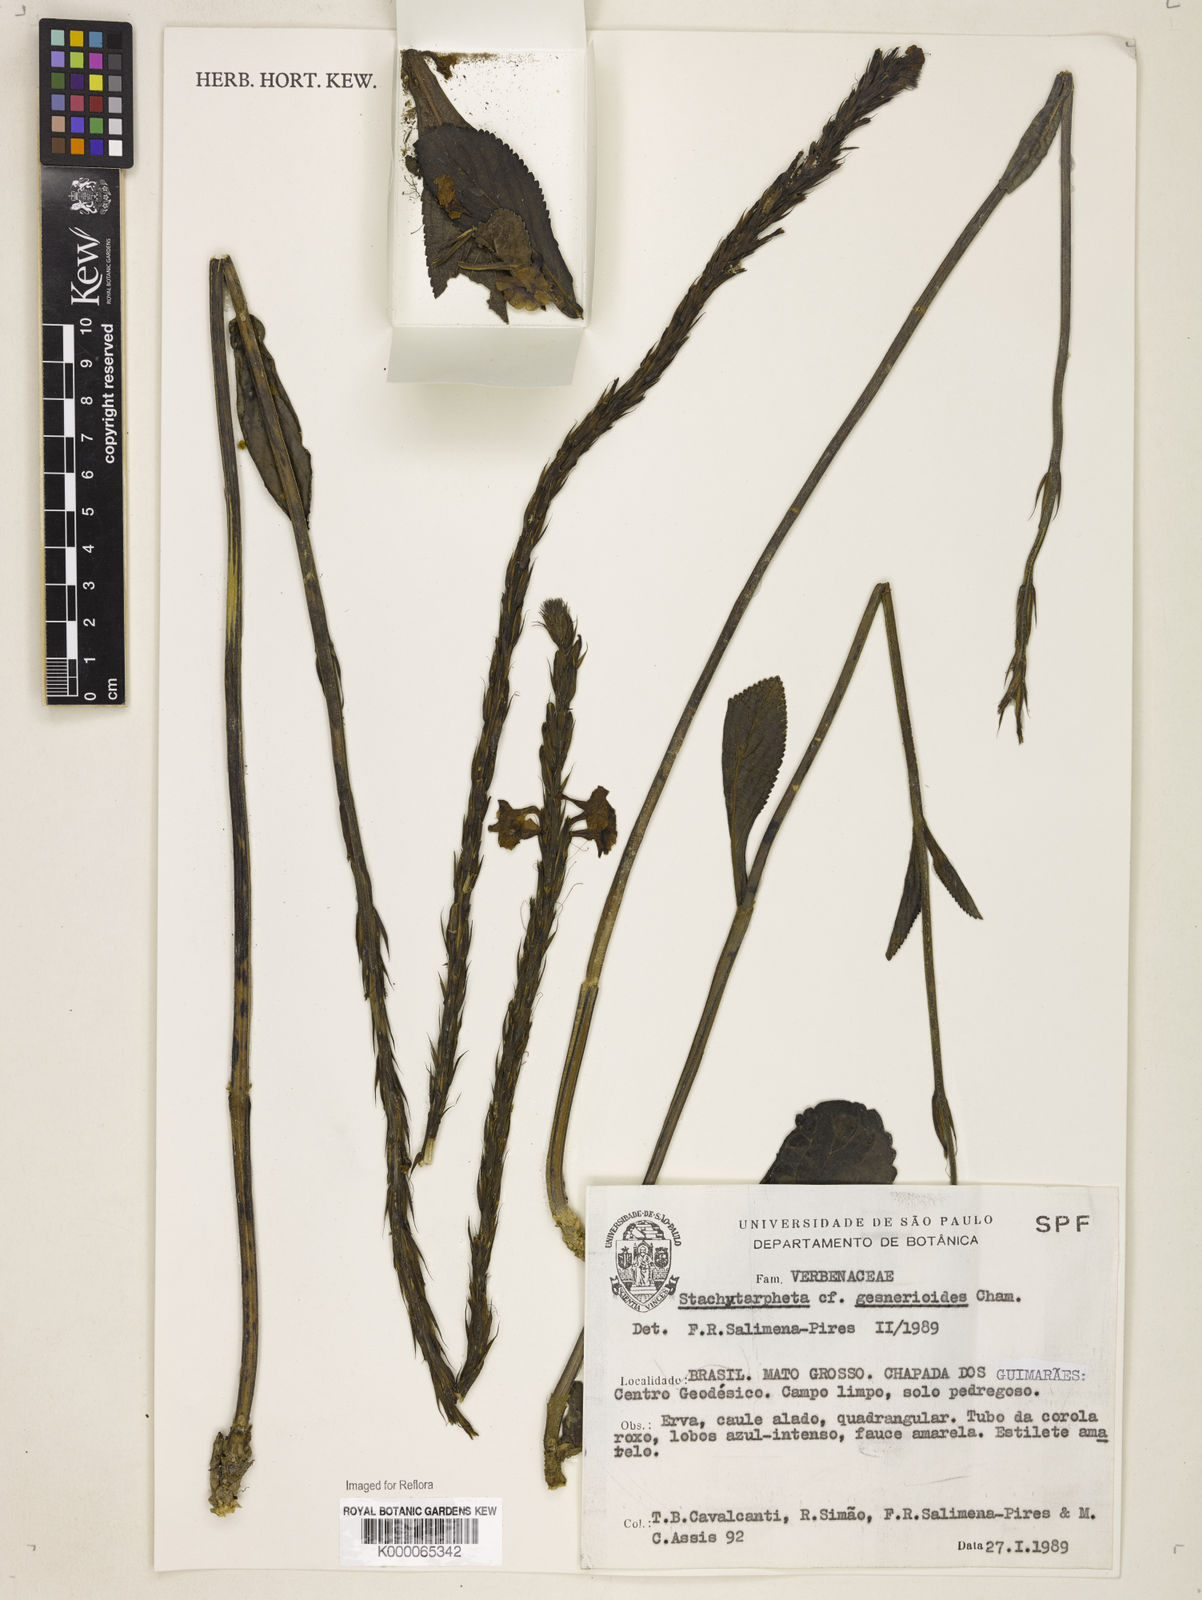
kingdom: Plantae
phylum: Tracheophyta
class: Magnoliopsida
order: Lamiales
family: Verbenaceae
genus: Stachytarpheta
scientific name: Stachytarpheta gesnerioides
